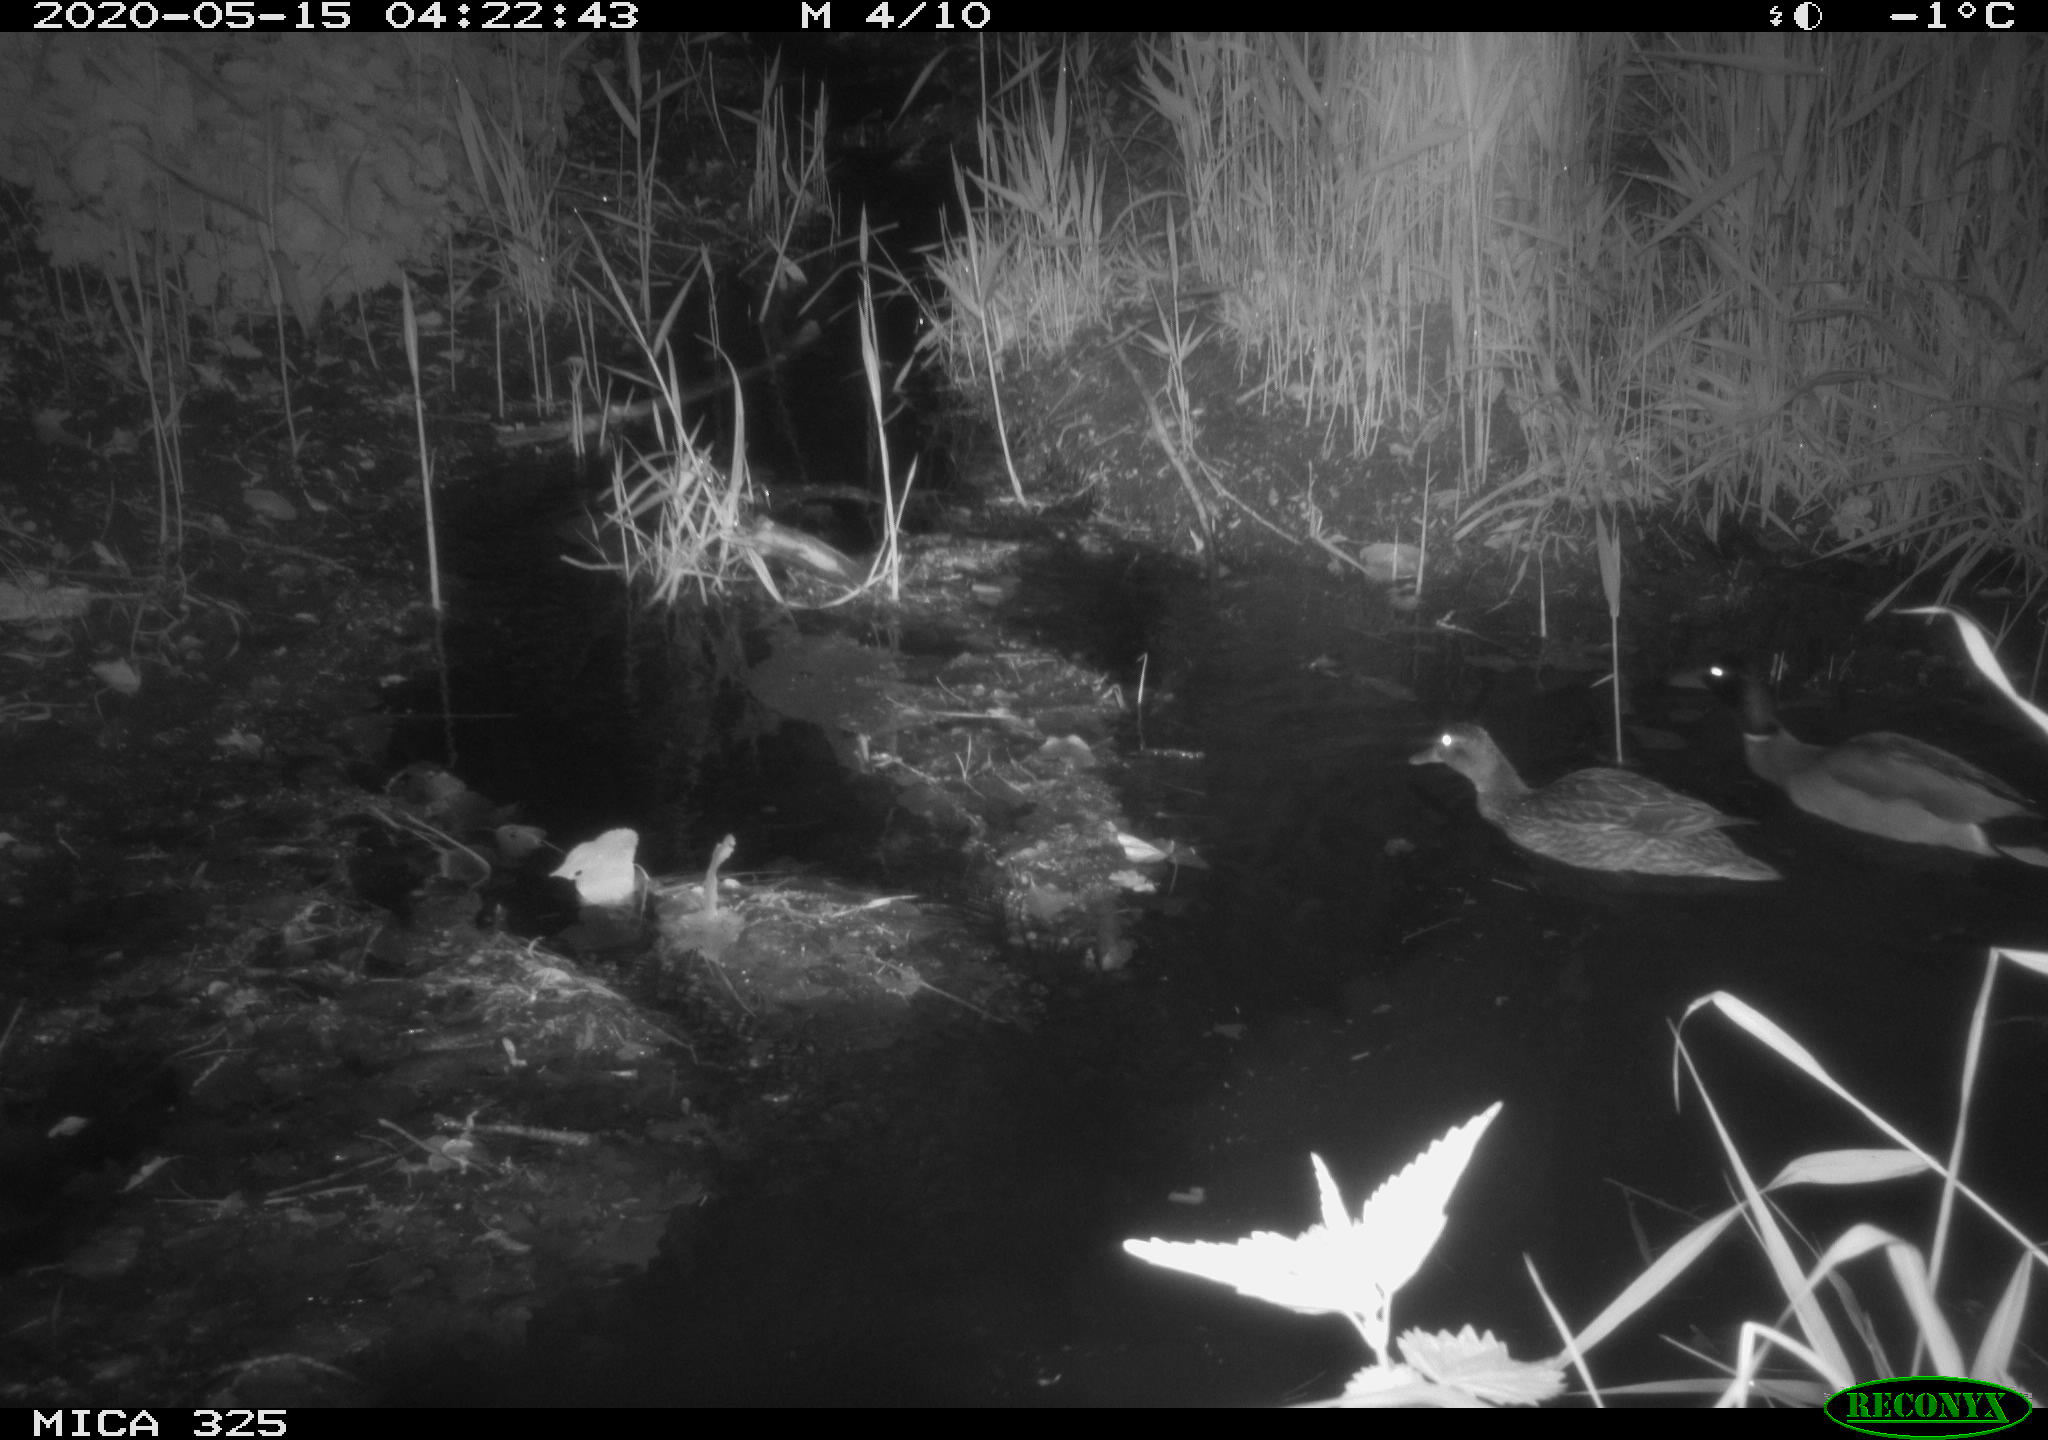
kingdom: Animalia
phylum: Chordata
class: Aves
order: Anseriformes
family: Anatidae
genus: Anas
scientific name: Anas platyrhynchos
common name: Mallard
